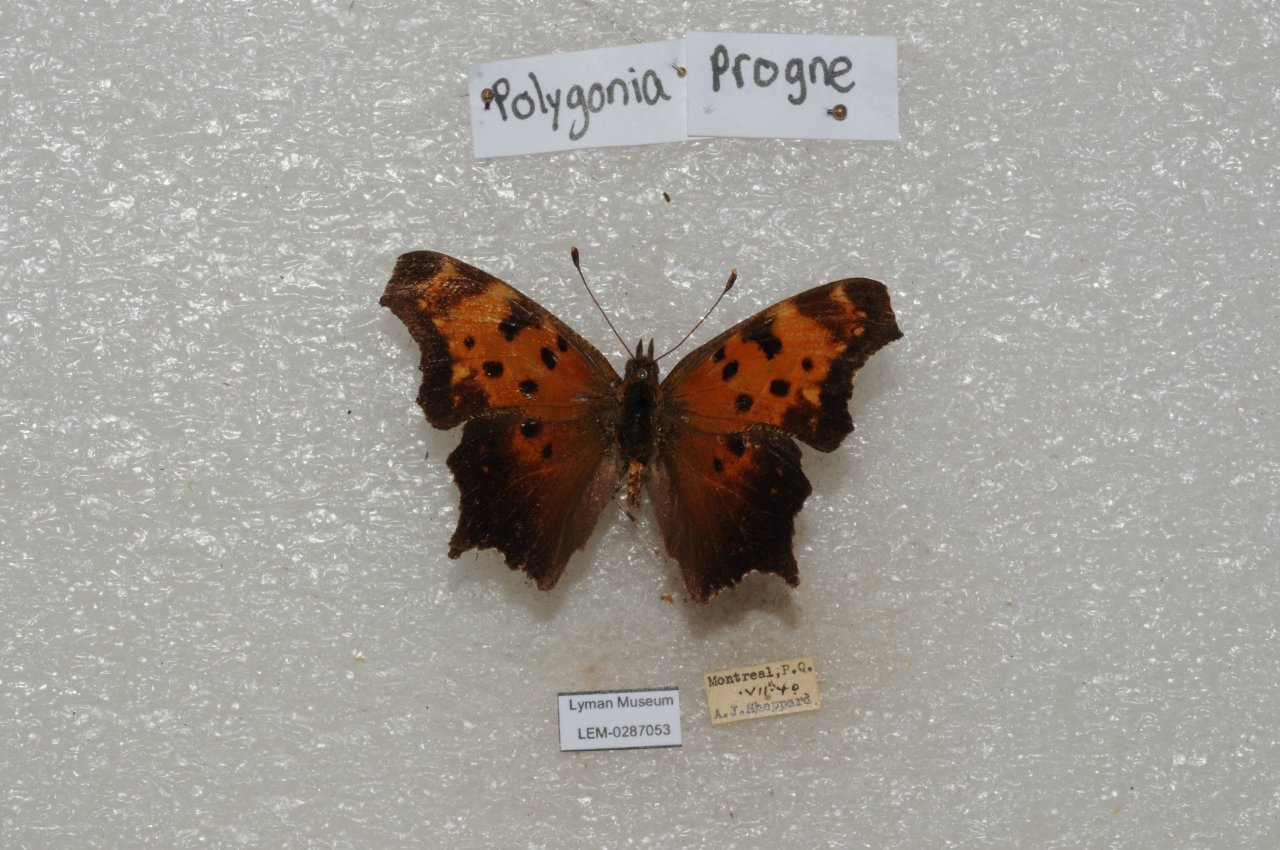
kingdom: Animalia
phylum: Arthropoda
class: Insecta
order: Lepidoptera
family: Nymphalidae
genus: Polygonia
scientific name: Polygonia progne
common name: Gray Comma
